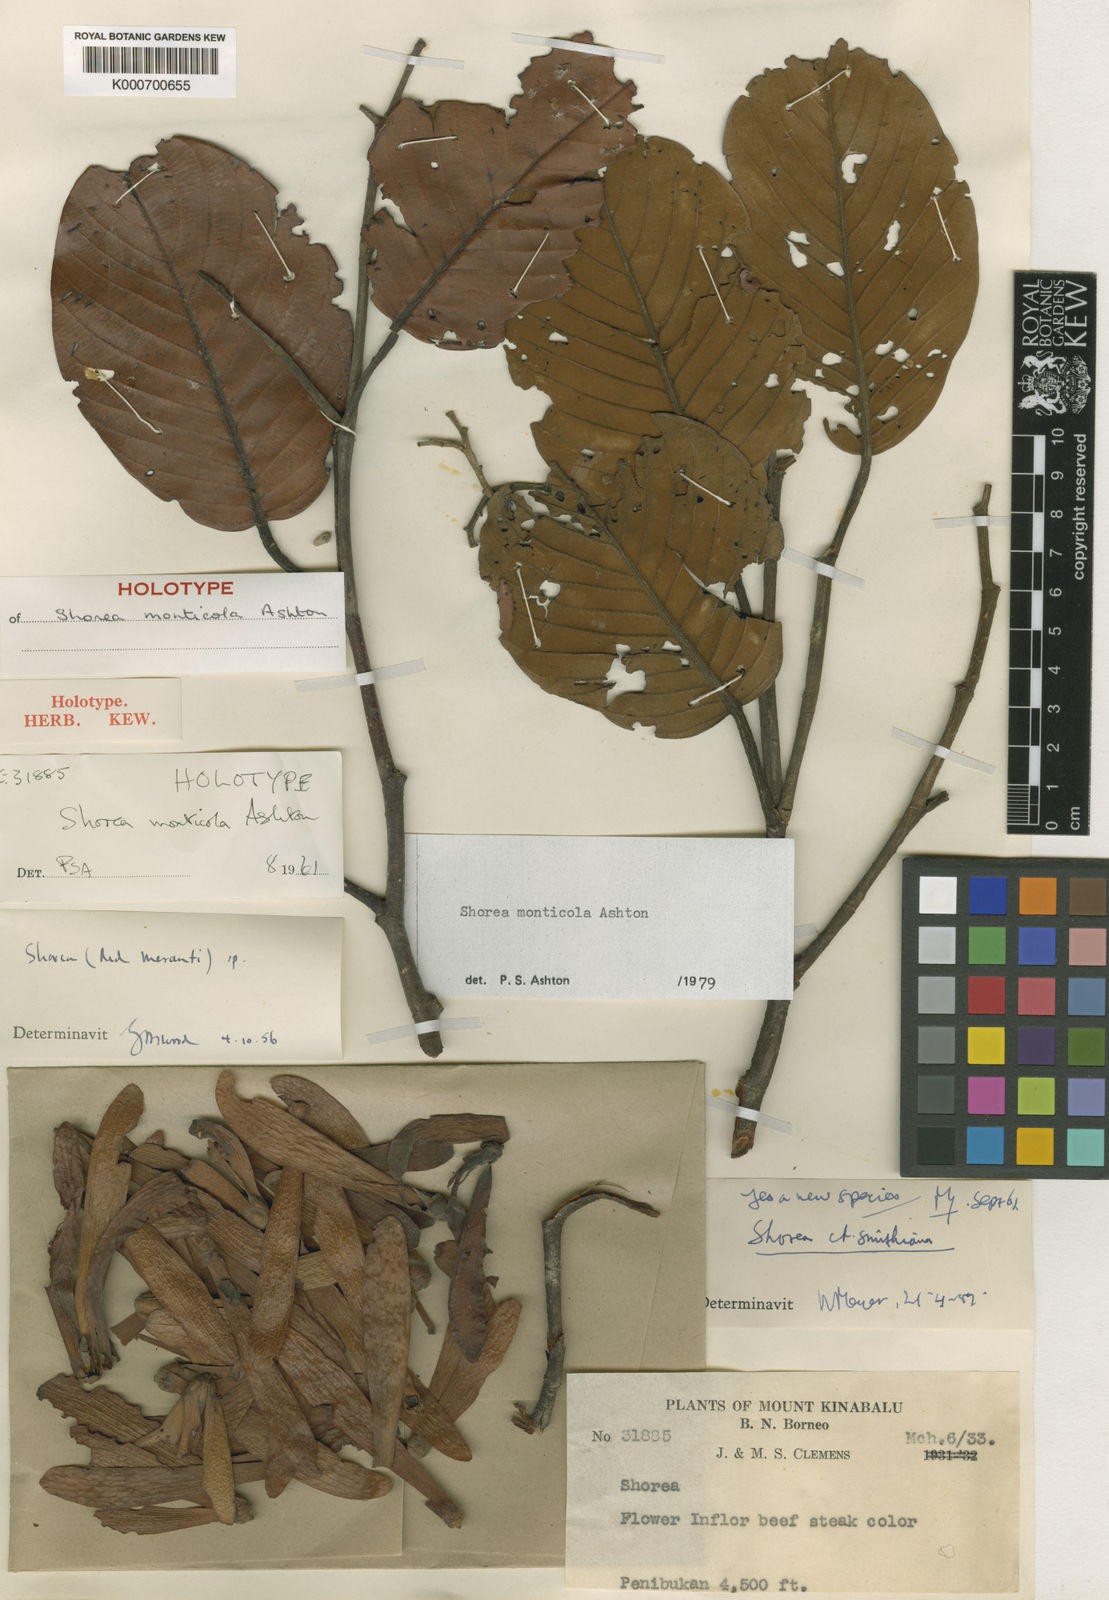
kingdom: Plantae
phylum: Tracheophyta
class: Magnoliopsida
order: Malvales
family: Dipterocarpaceae
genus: Shorea
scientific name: Shorea monticola
